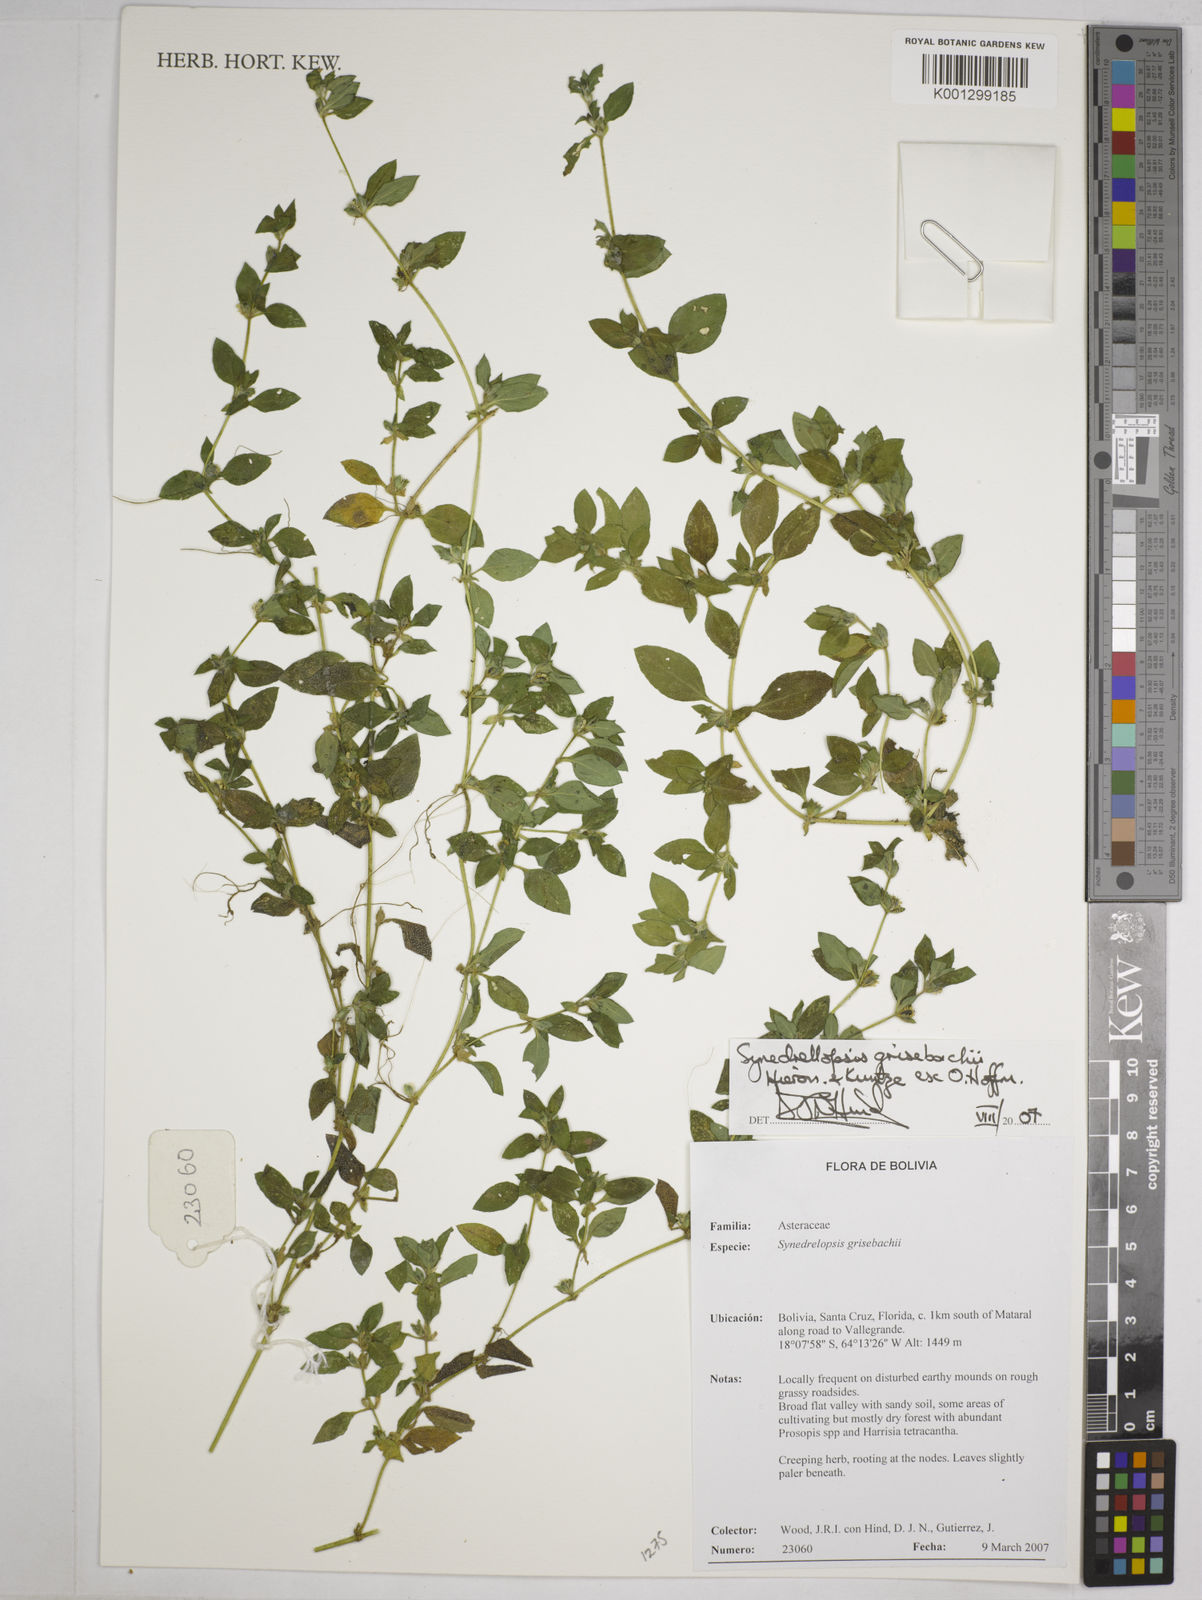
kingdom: Plantae
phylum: Tracheophyta
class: Magnoliopsida
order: Asterales
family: Asteraceae
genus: Synedrellopsis
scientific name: Synedrellopsis grisebachii
